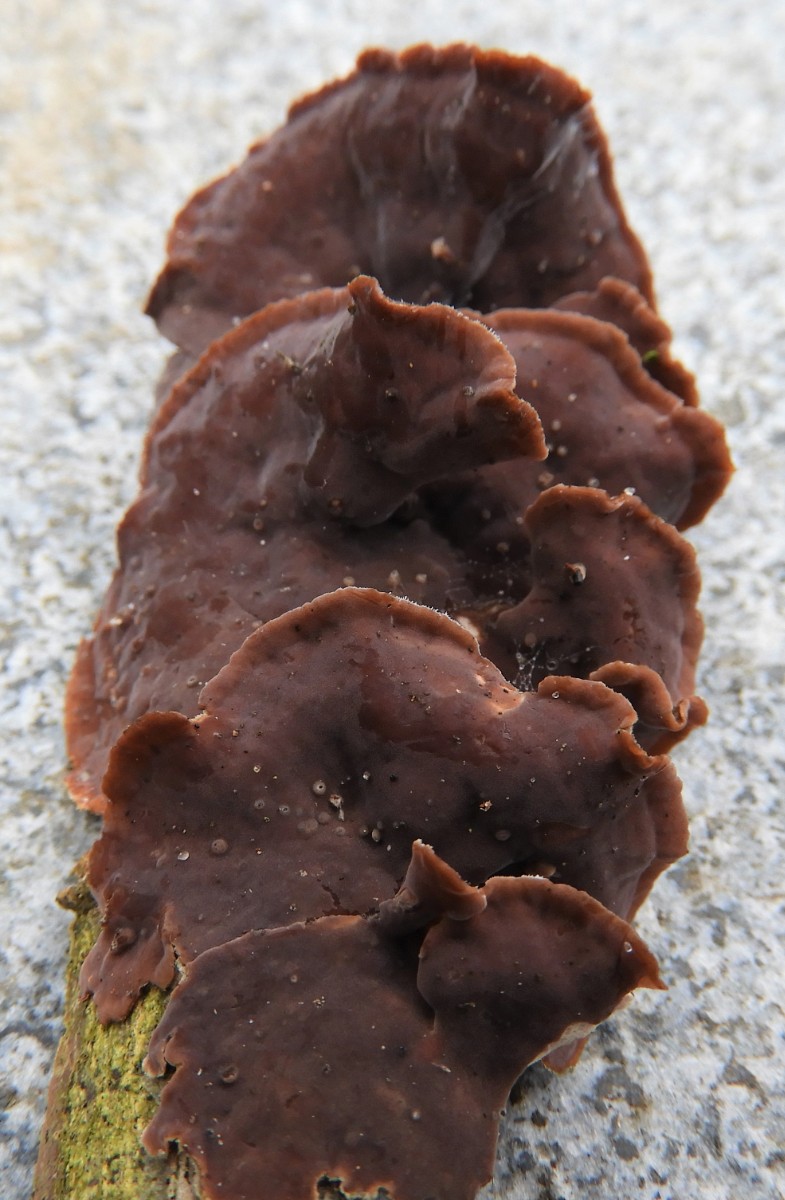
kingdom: Fungi
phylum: Basidiomycota
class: Agaricomycetes
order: Agaricales
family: Cyphellaceae
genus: Chondrostereum
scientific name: Chondrostereum purpureum
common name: purpurlædersvamp
